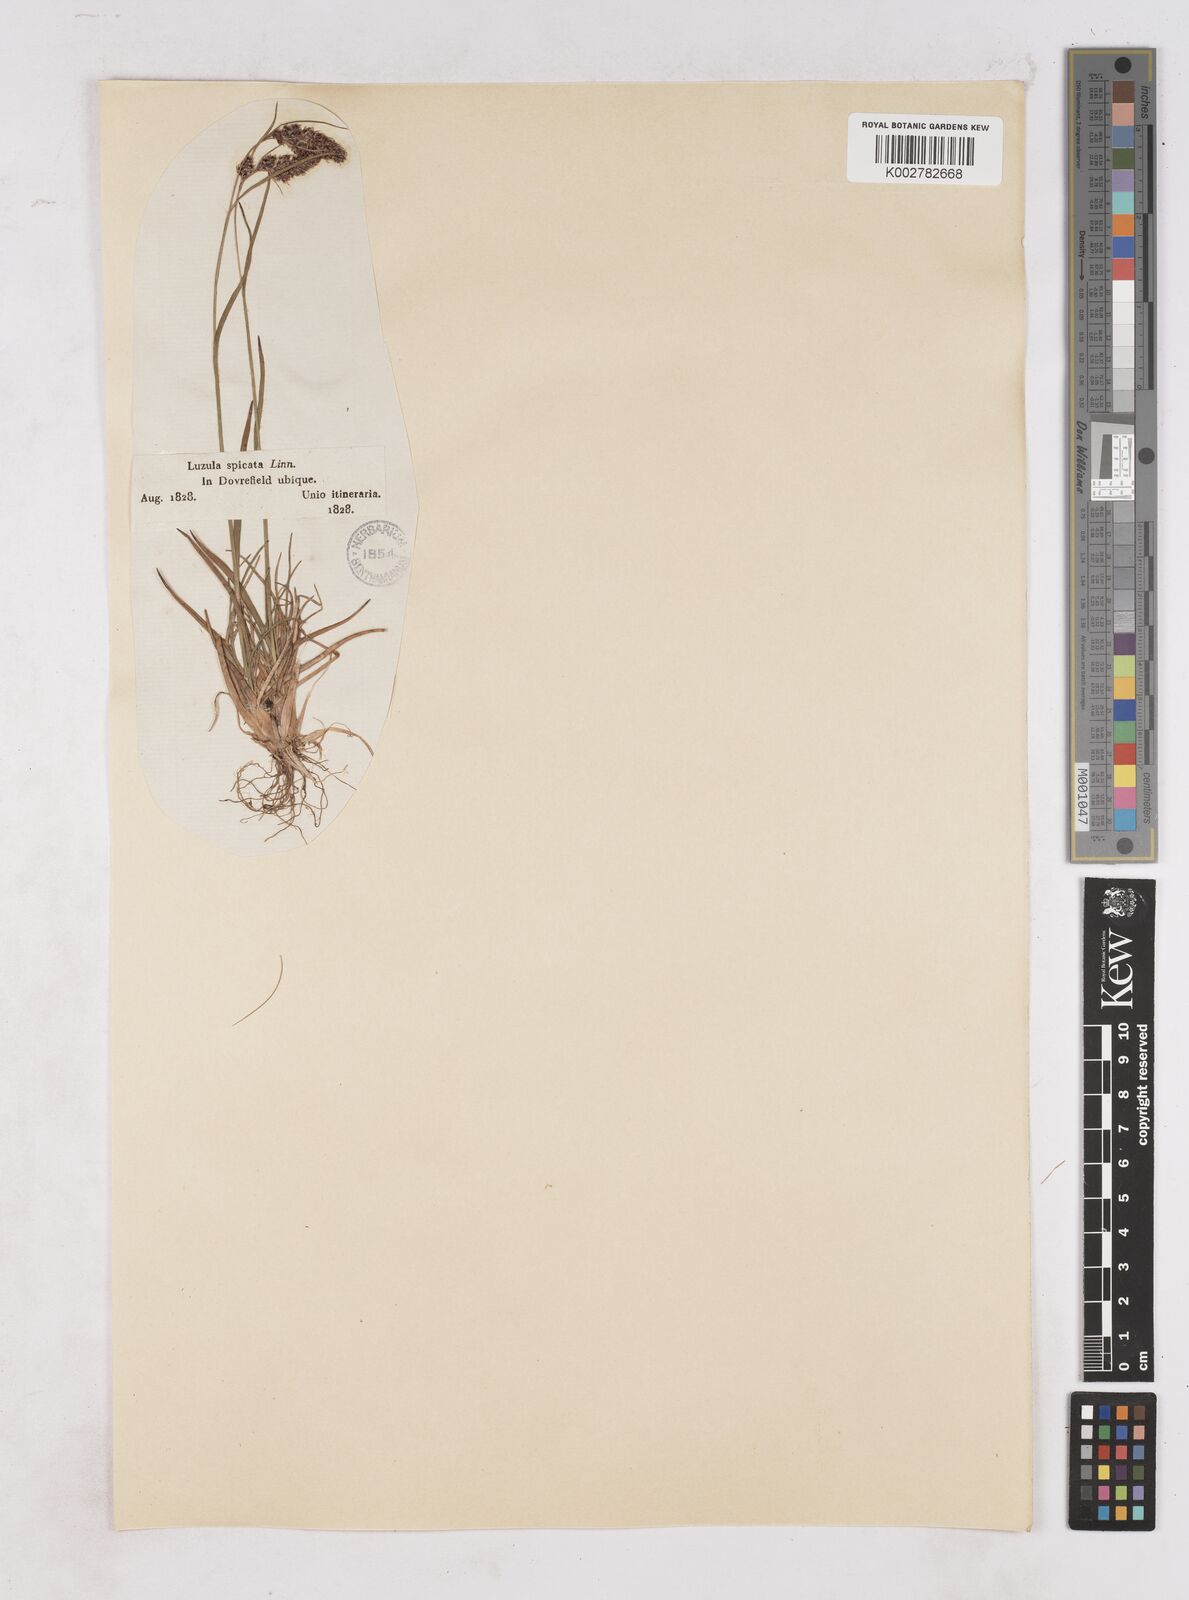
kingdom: Plantae
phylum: Tracheophyta
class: Liliopsida
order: Poales
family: Juncaceae
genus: Luzula
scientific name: Luzula spicata
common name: Spiked wood-rush
